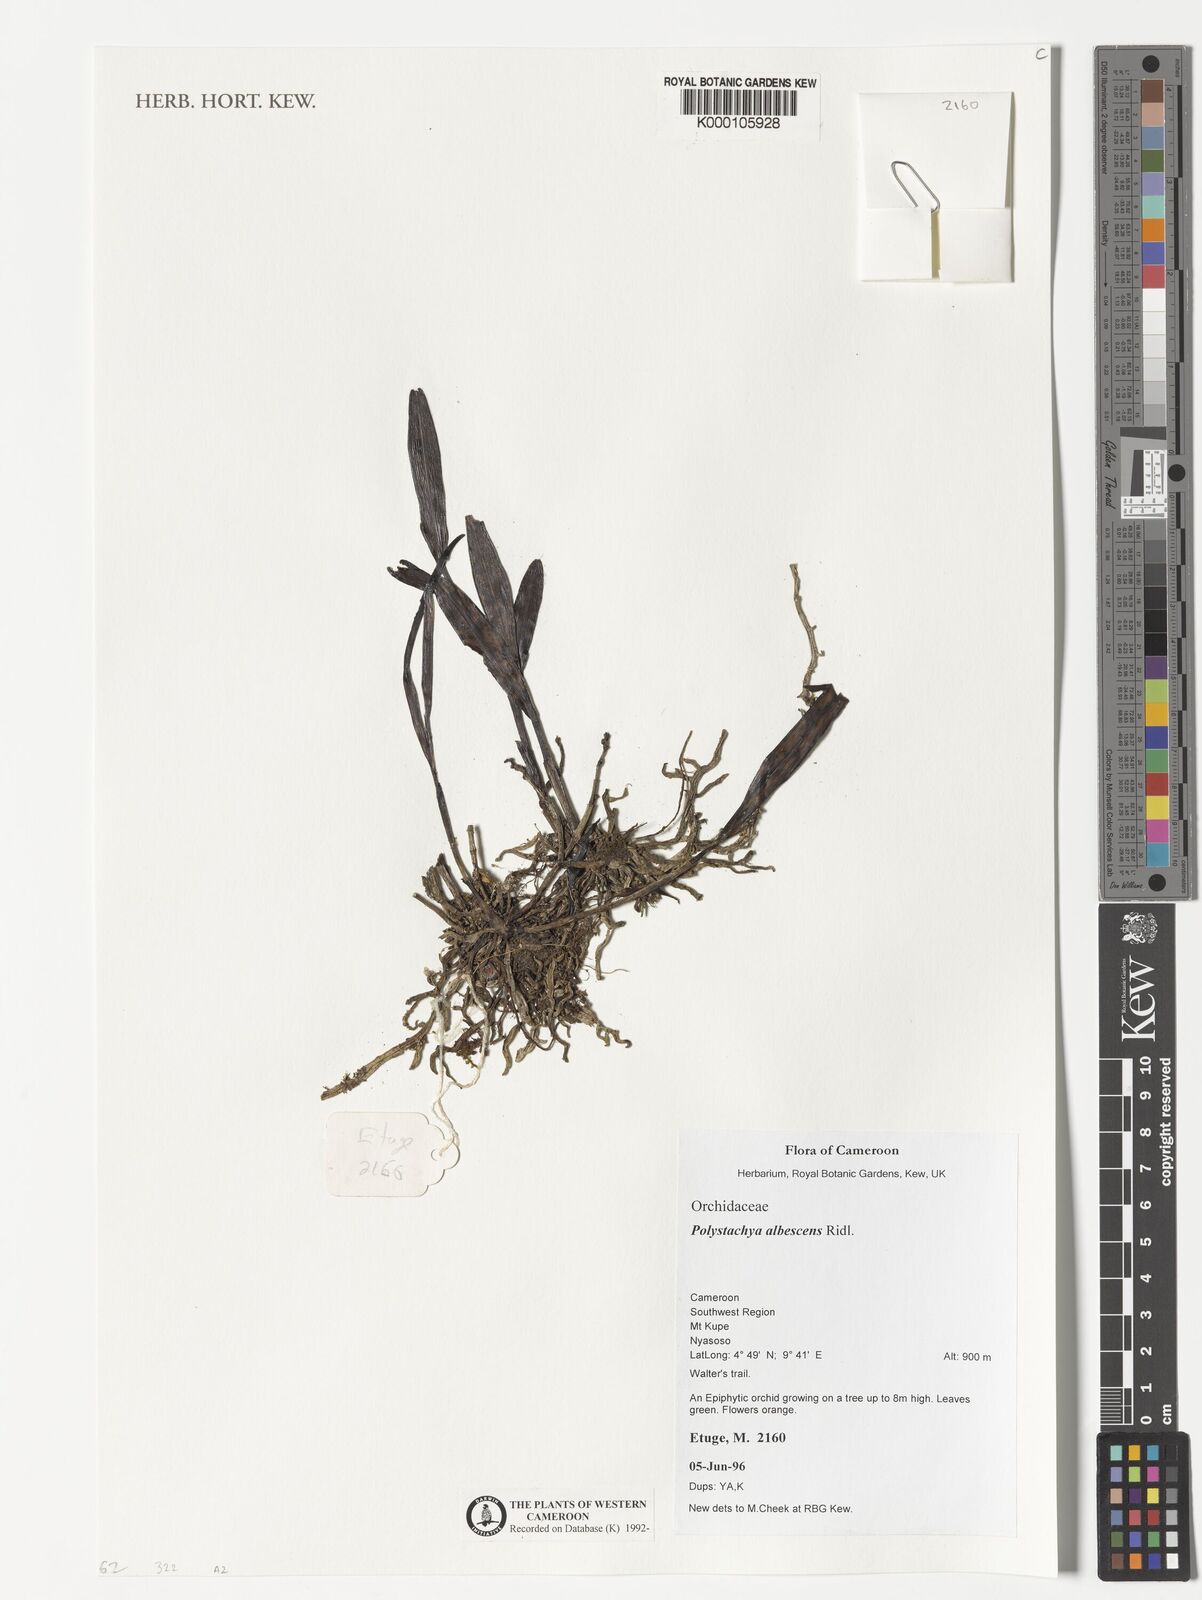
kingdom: Plantae
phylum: Tracheophyta
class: Liliopsida
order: Asparagales
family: Orchidaceae
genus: Polystachya
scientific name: Polystachya albescens
